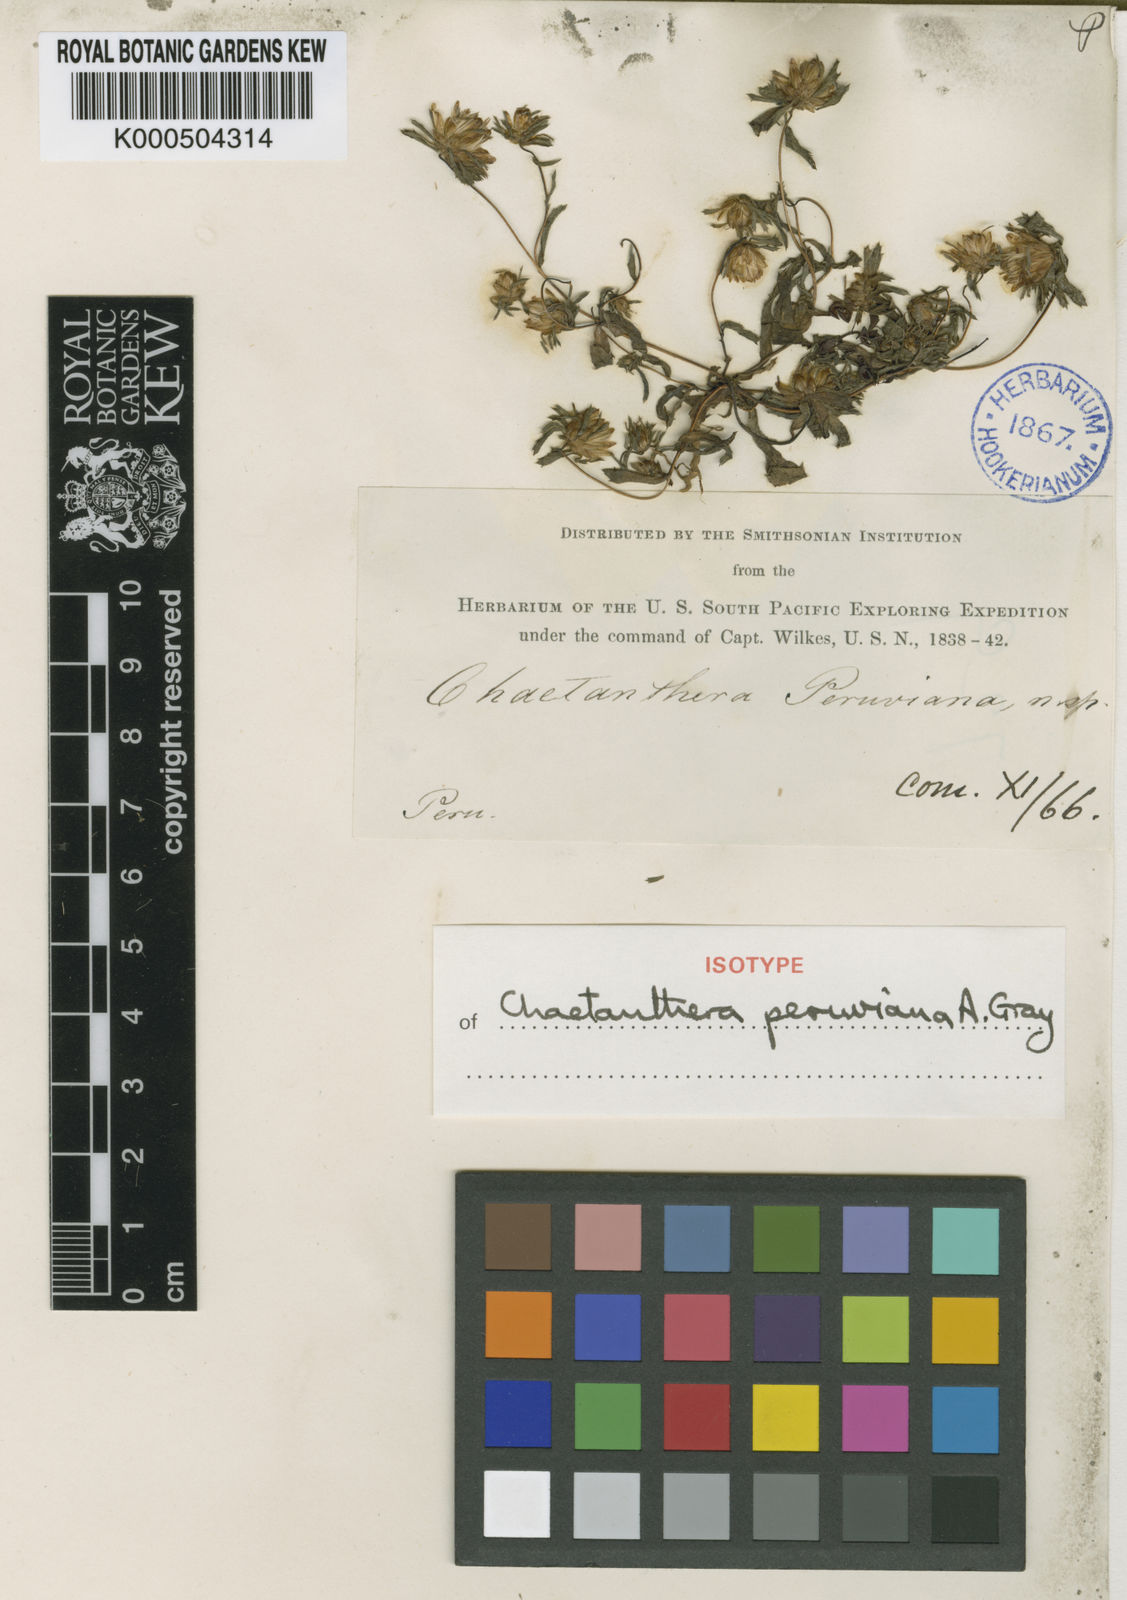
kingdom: Plantae
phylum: Tracheophyta
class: Magnoliopsida
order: Asterales
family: Asteraceae
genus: Chaetanthera
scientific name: Chaetanthera peruviana
